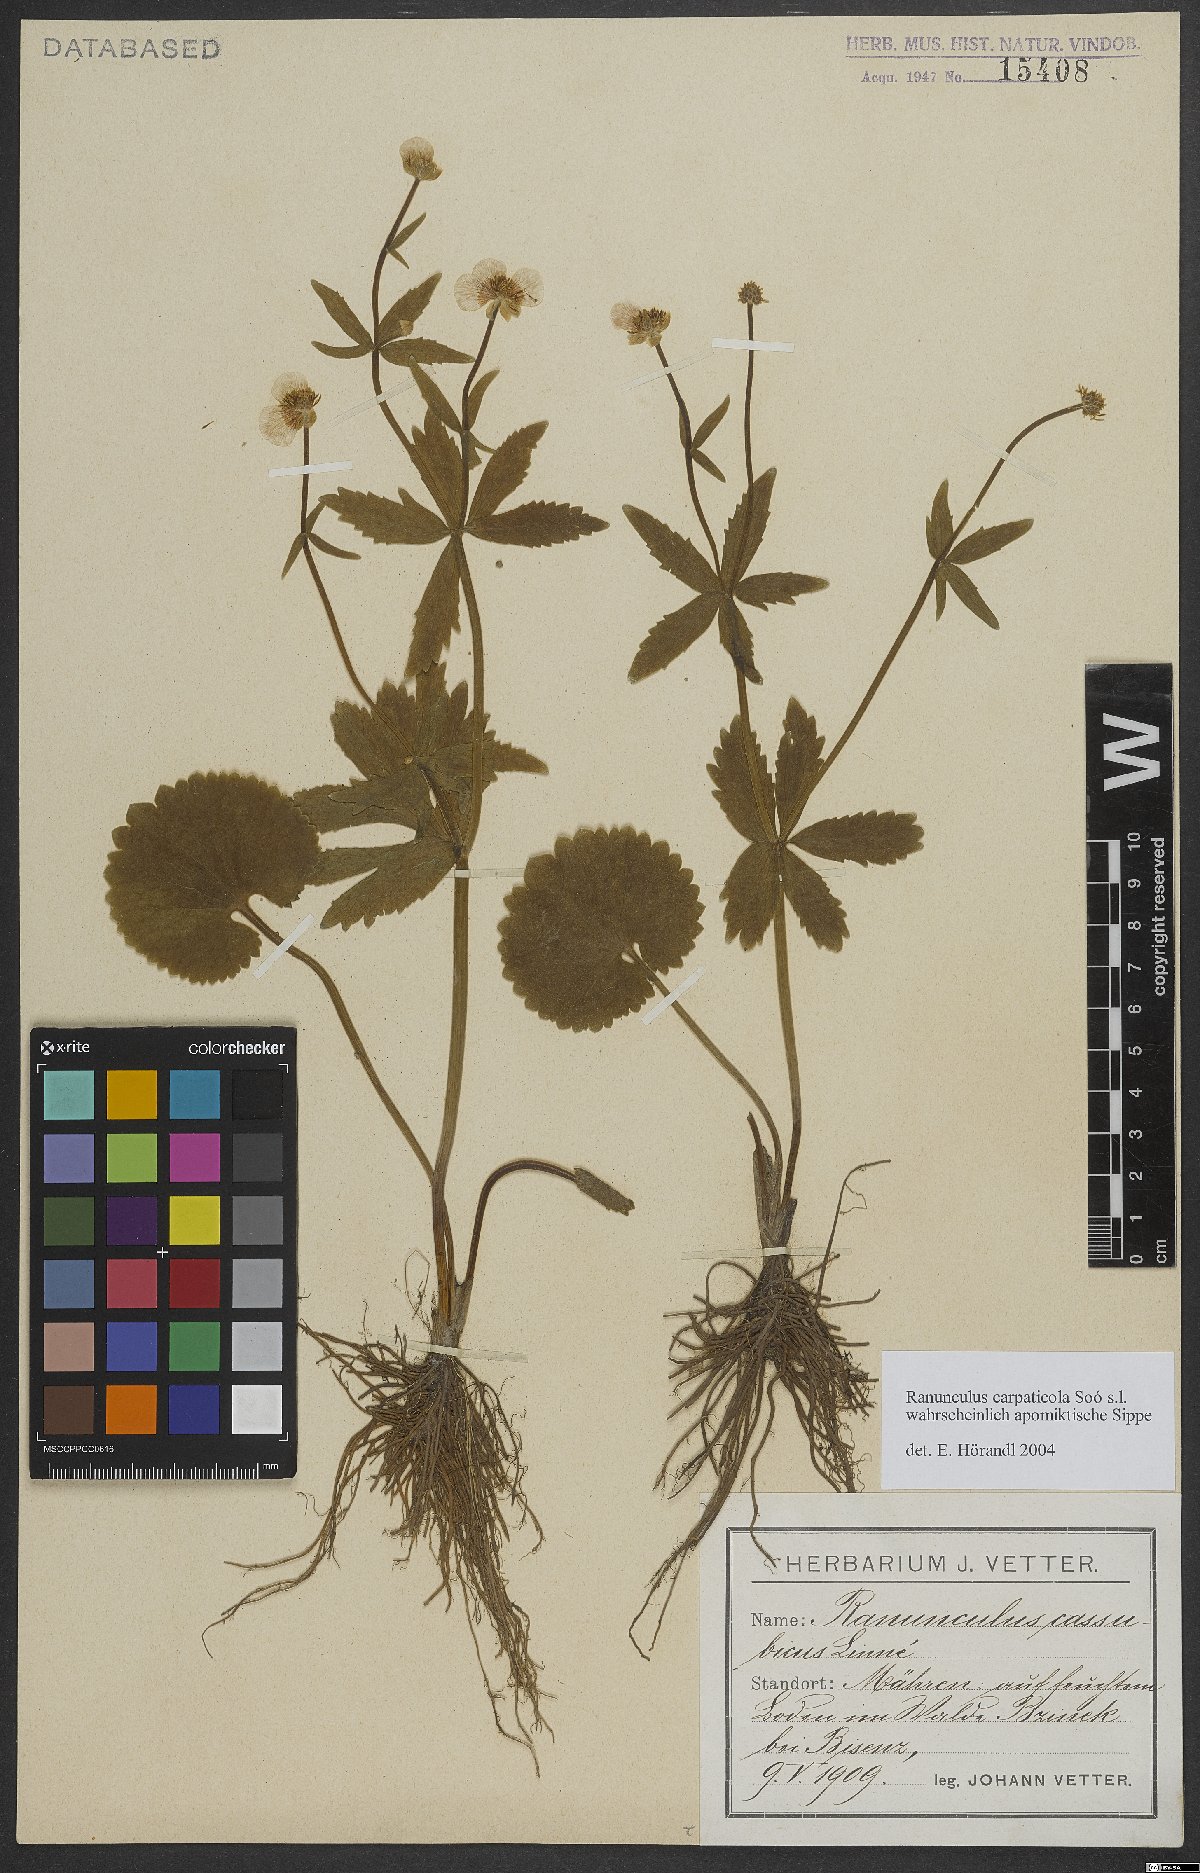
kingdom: Plantae
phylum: Tracheophyta
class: Magnoliopsida
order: Ranunculales
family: Ranunculaceae
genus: Ranunculus
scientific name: Ranunculus cassubicifolius
